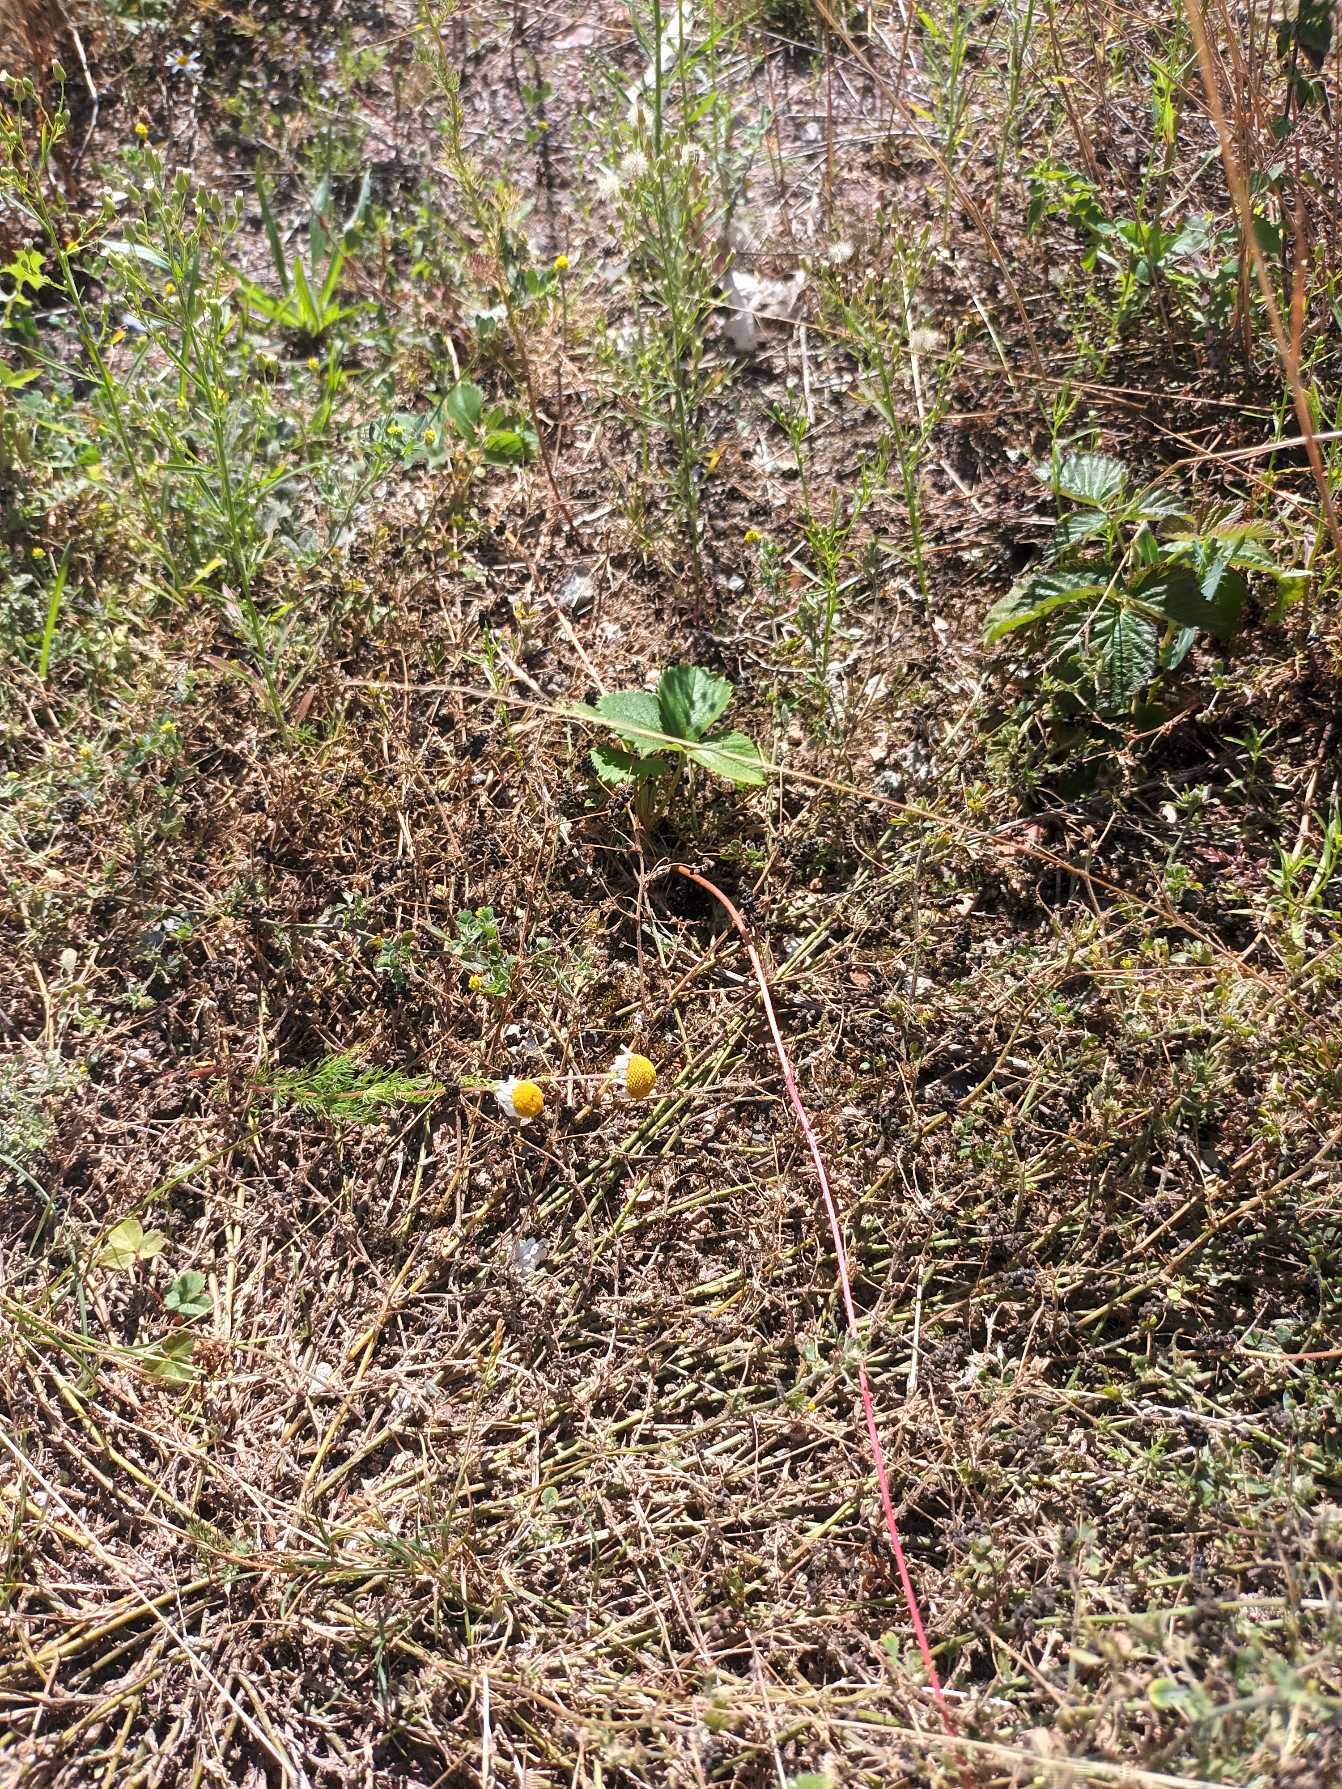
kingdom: Plantae
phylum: Tracheophyta
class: Magnoliopsida
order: Rosales
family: Rosaceae
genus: Fragaria
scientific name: Fragaria ananassa
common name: Have-jordbær
